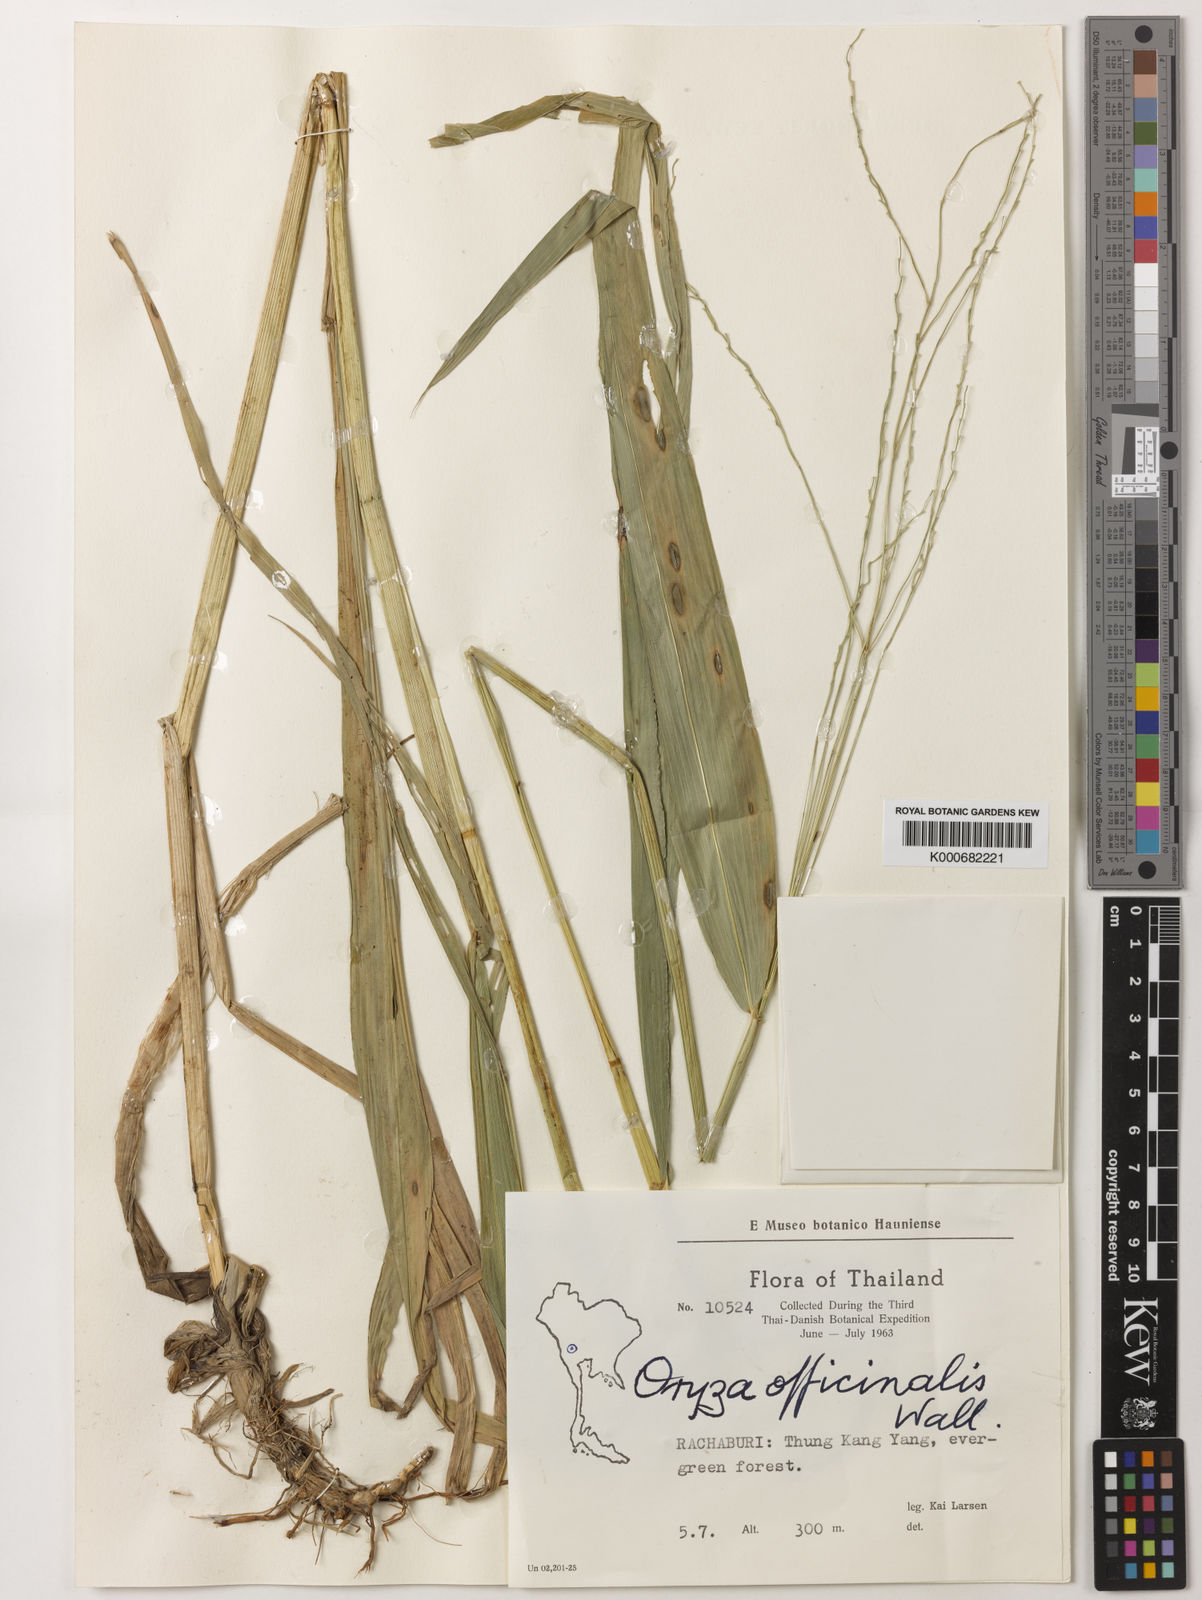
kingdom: Plantae
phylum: Tracheophyta
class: Liliopsida
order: Poales
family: Poaceae
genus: Oryza
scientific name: Oryza minuta
